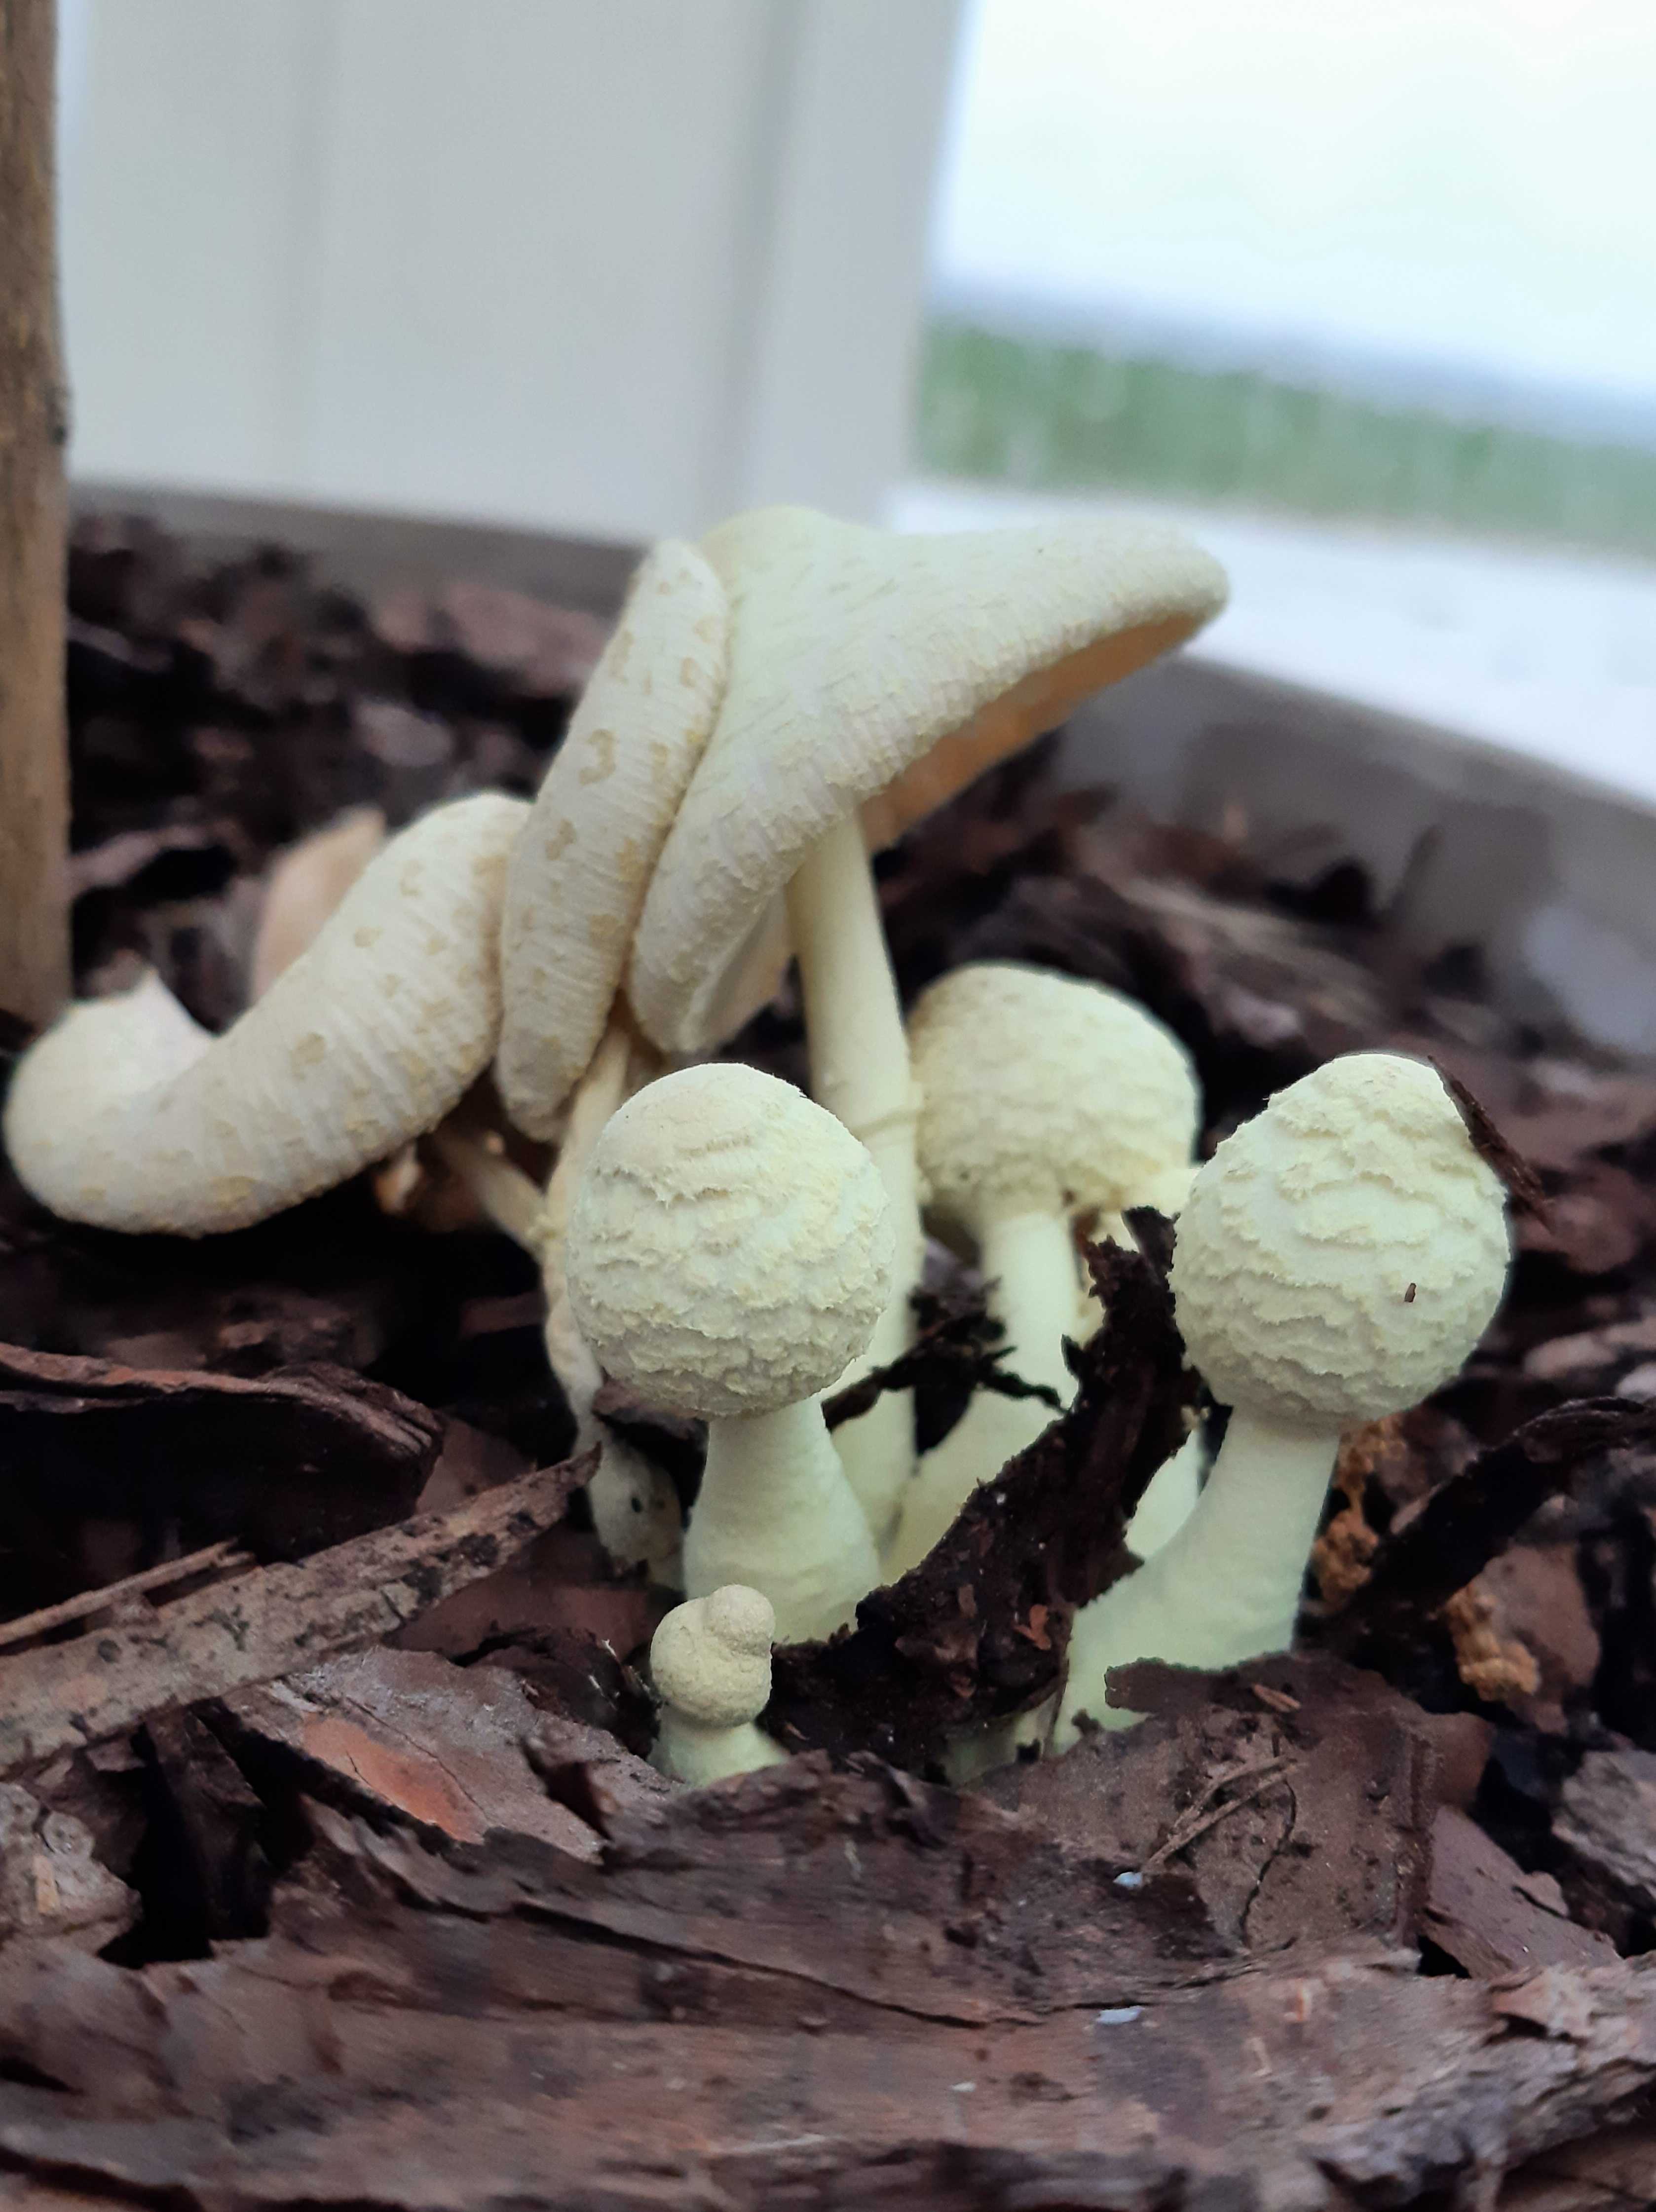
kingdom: Fungi
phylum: Basidiomycota
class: Agaricomycetes
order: Agaricales
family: Agaricaceae
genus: Leucocoprinus
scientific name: Leucocoprinus birnbaumii
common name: gul silkehat
